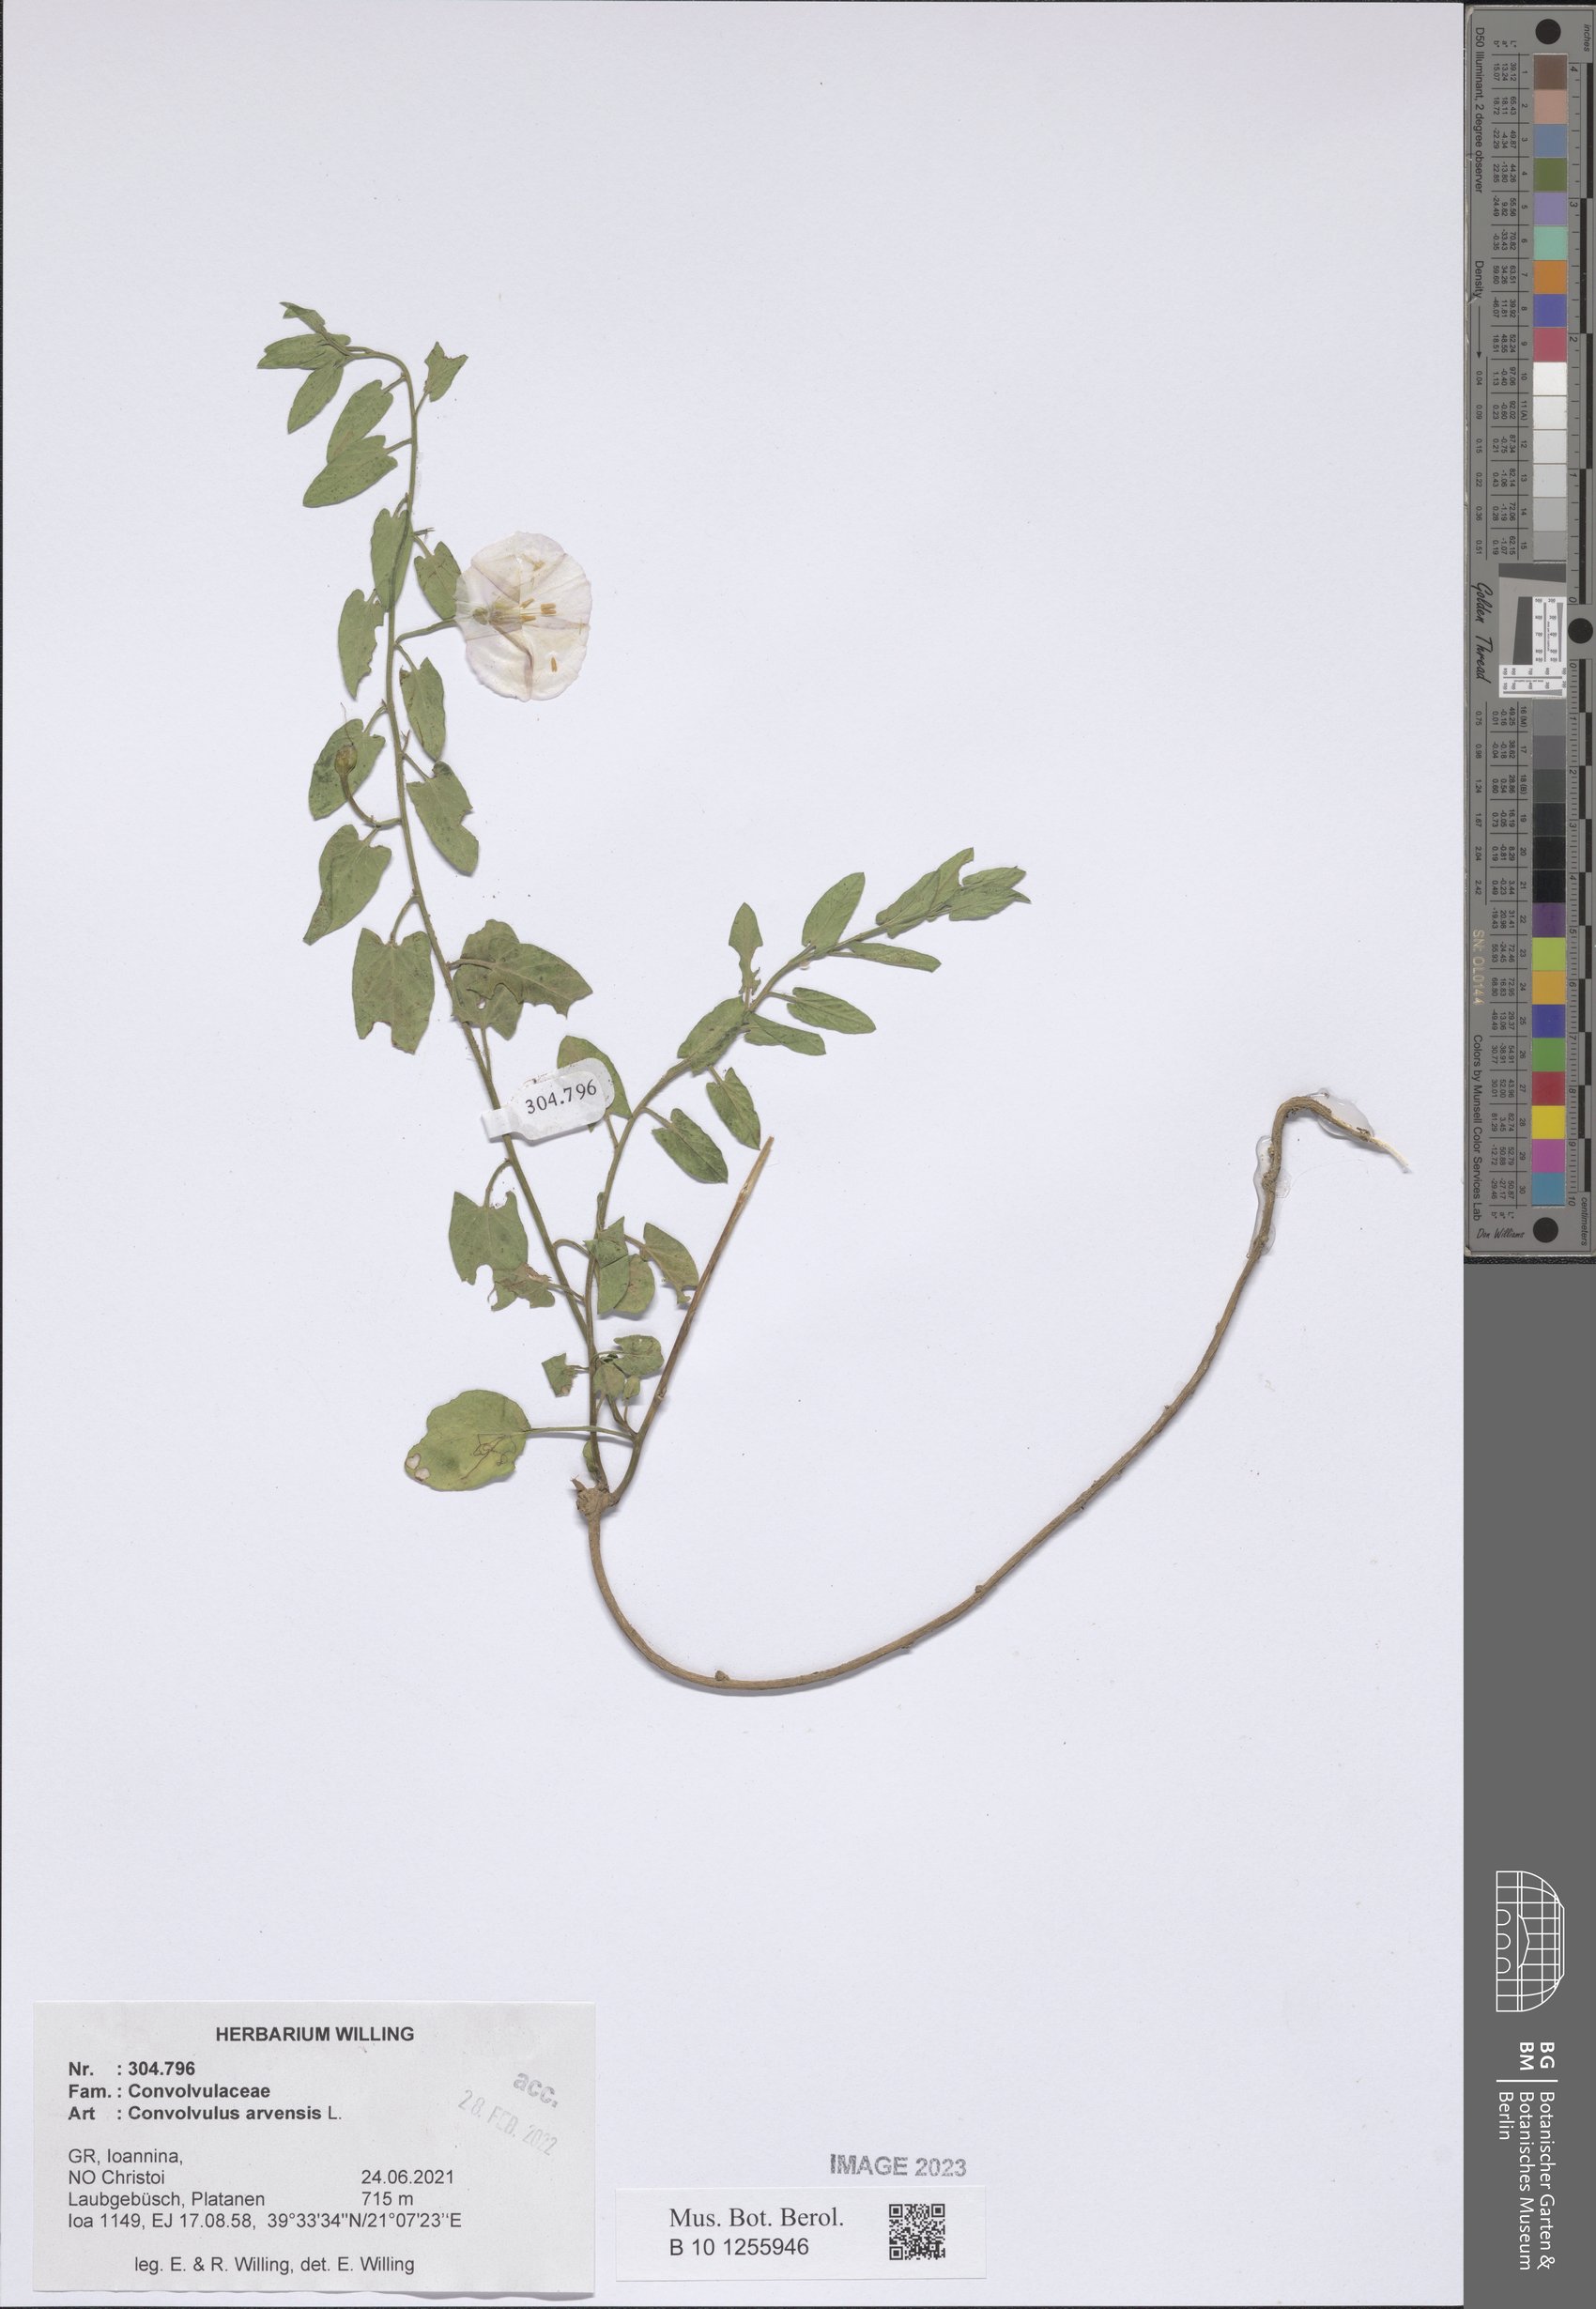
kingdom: Plantae
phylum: Tracheophyta
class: Magnoliopsida
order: Solanales
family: Convolvulaceae
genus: Convolvulus
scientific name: Convolvulus arvensis
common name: Field bindweed
